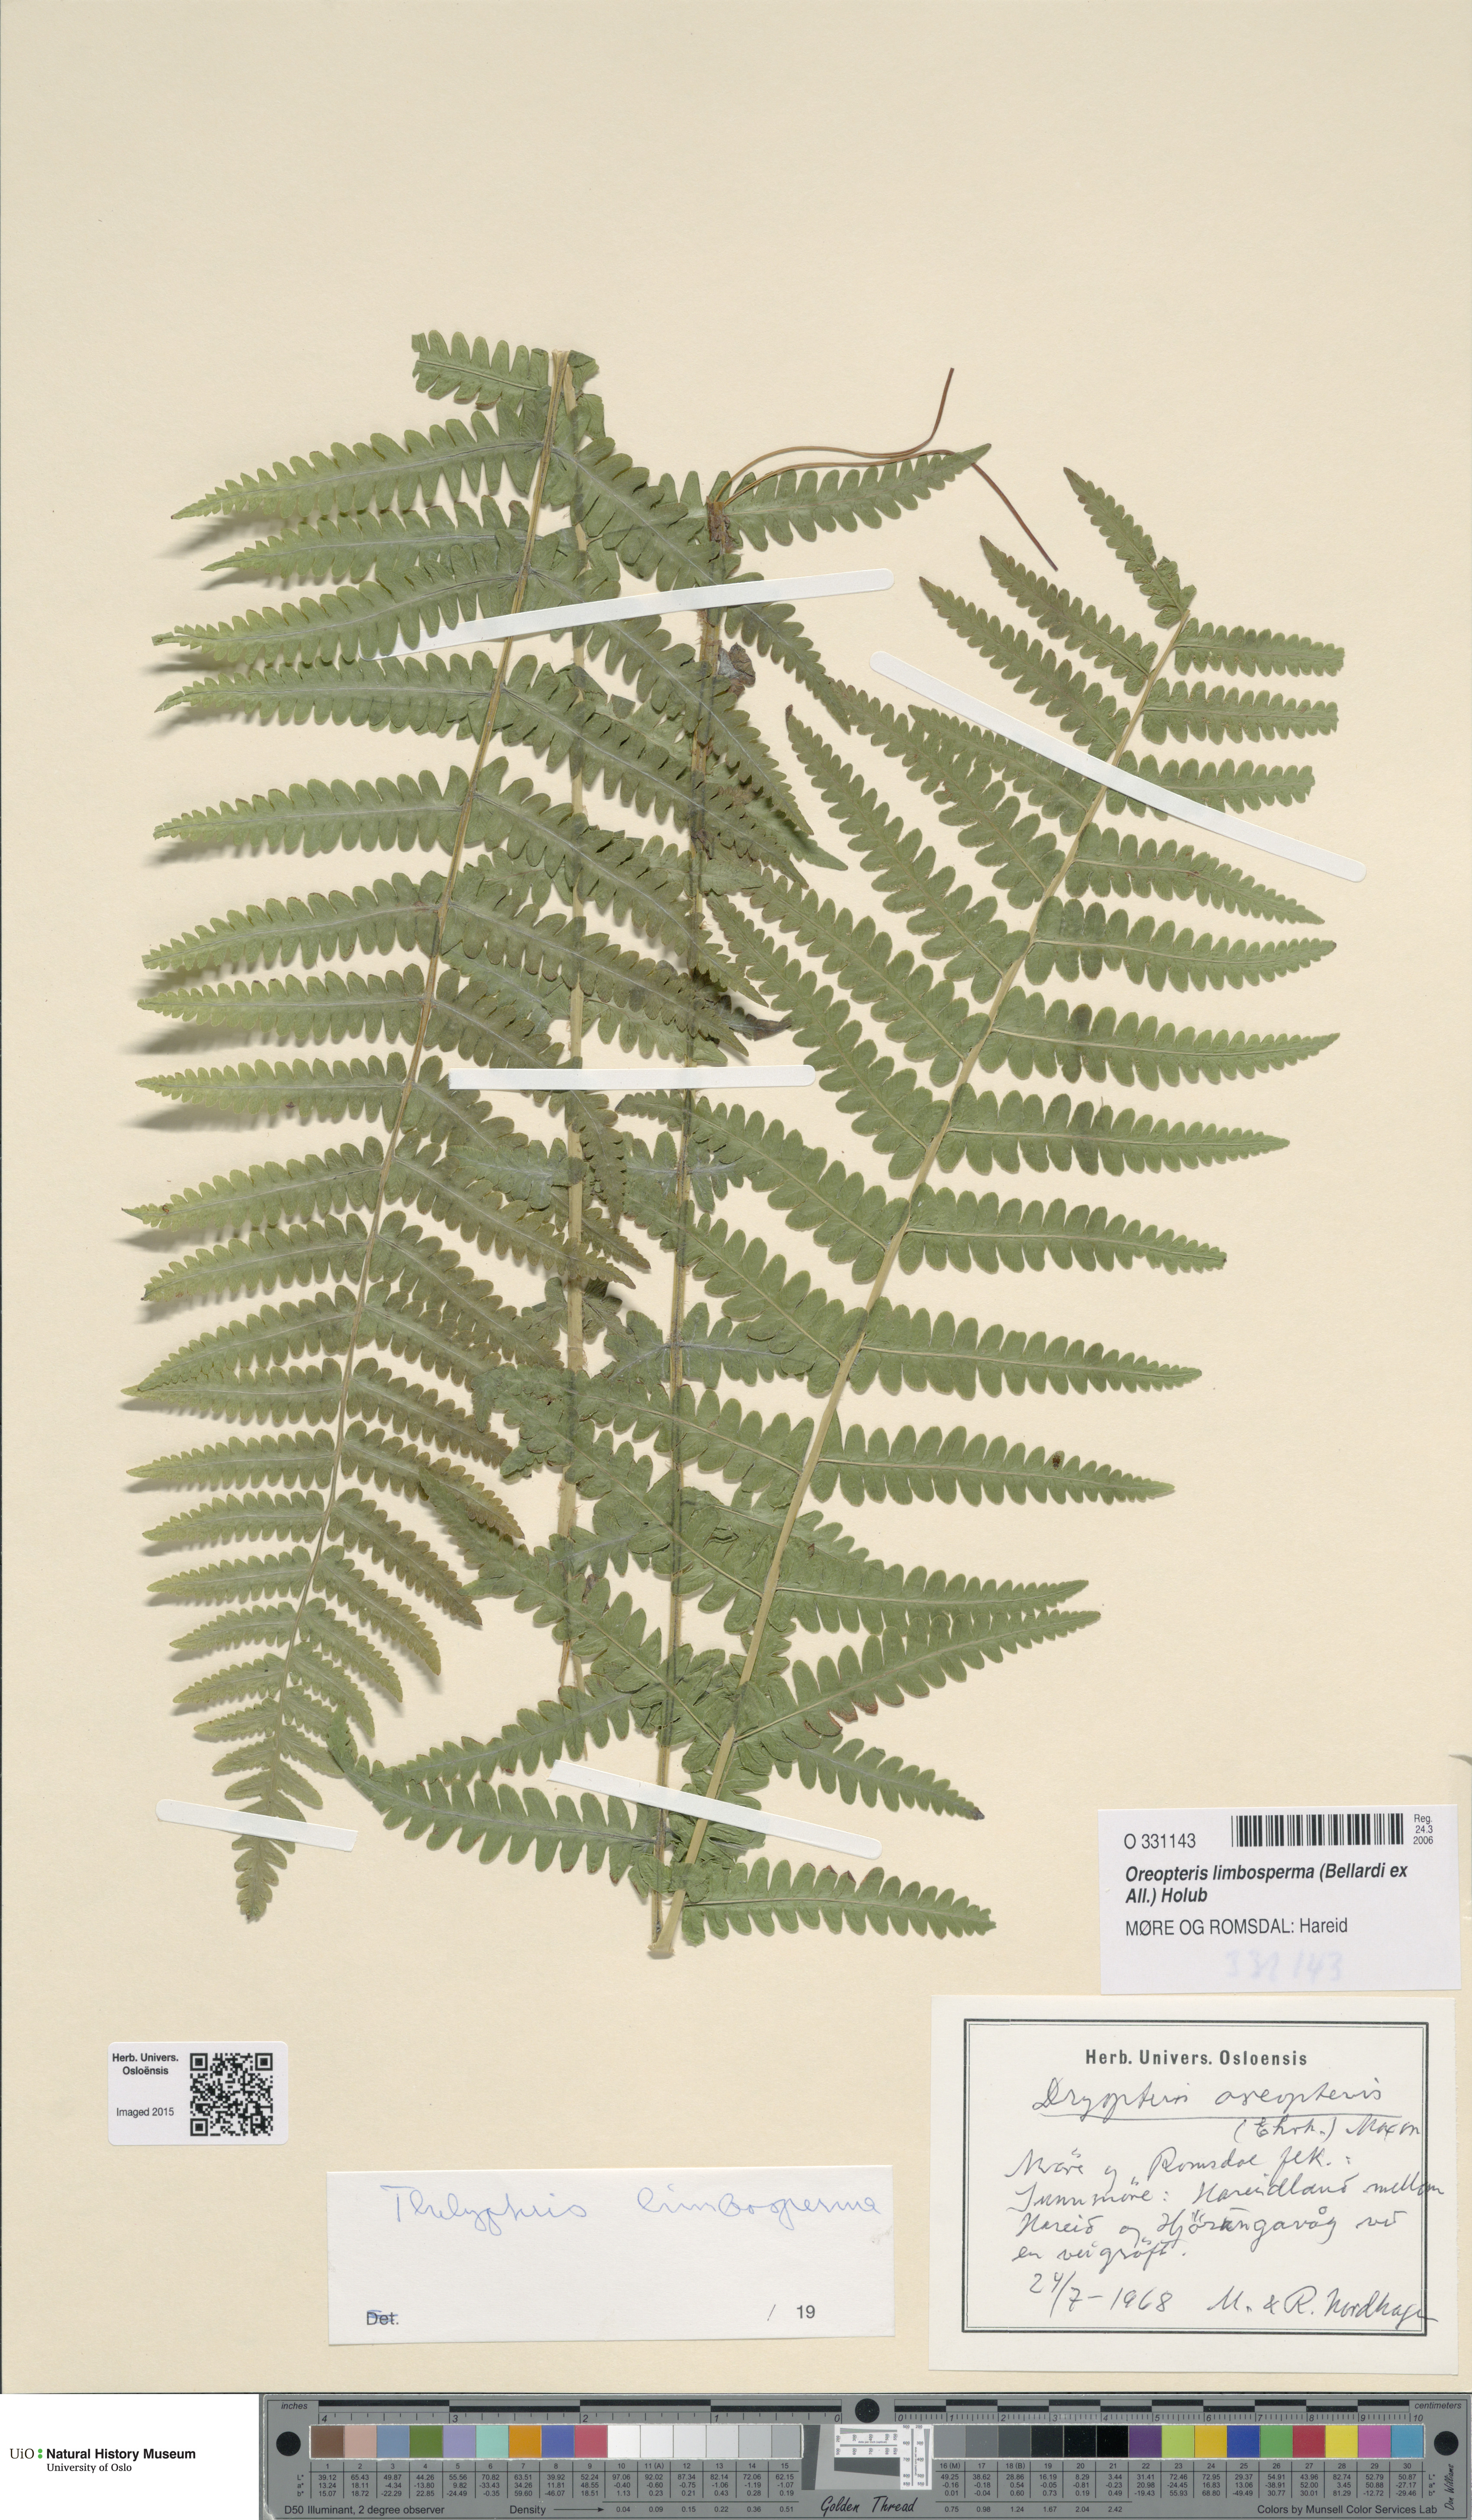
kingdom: Plantae
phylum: Tracheophyta
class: Polypodiopsida
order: Polypodiales
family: Thelypteridaceae
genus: Oreopteris
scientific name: Oreopteris limbosperma
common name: Lemon-scented fern
